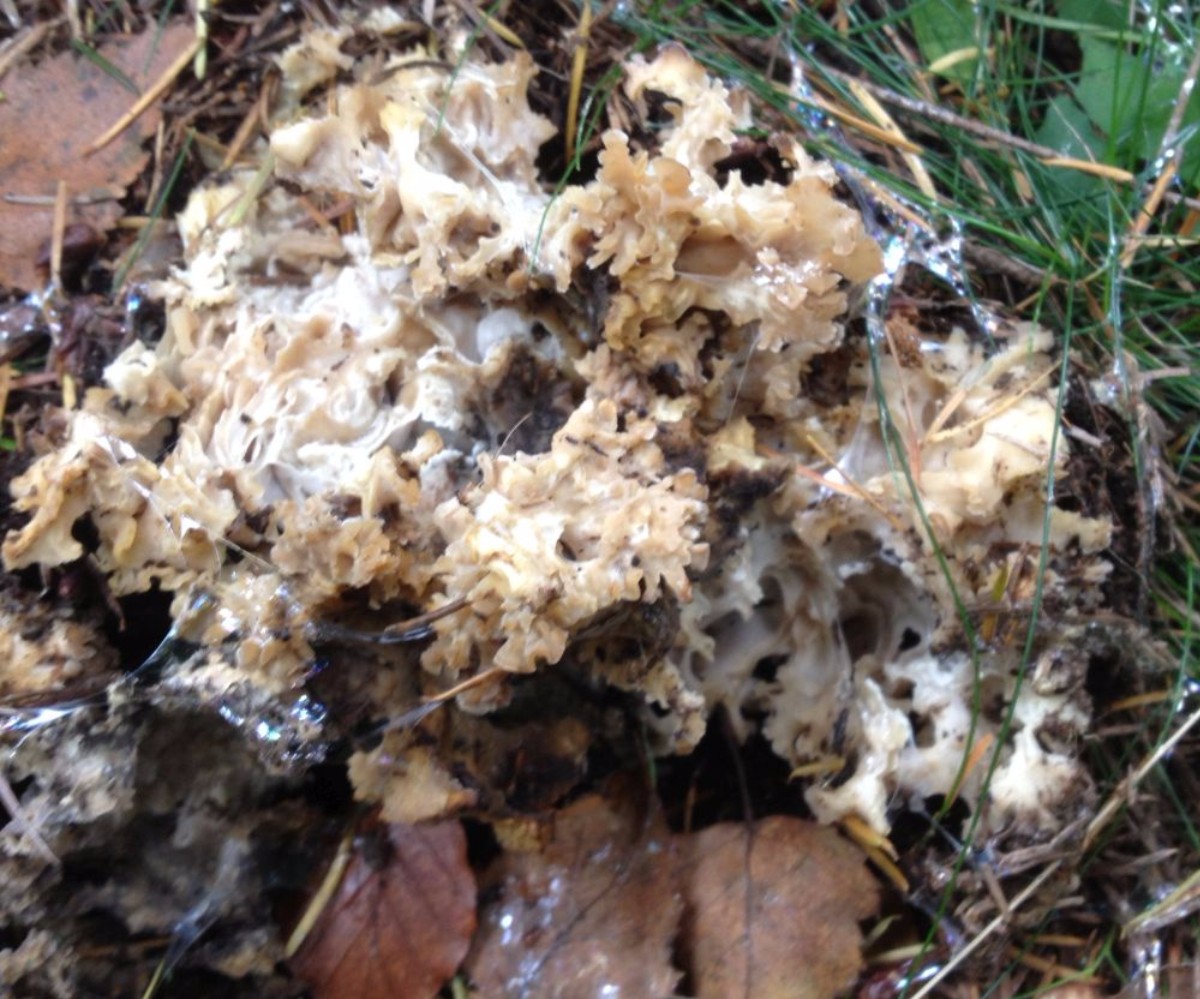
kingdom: Fungi
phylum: Basidiomycota
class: Agaricomycetes
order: Polyporales
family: Sparassidaceae
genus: Sparassis
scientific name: Sparassis crispa
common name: kruset blomkålssvamp
